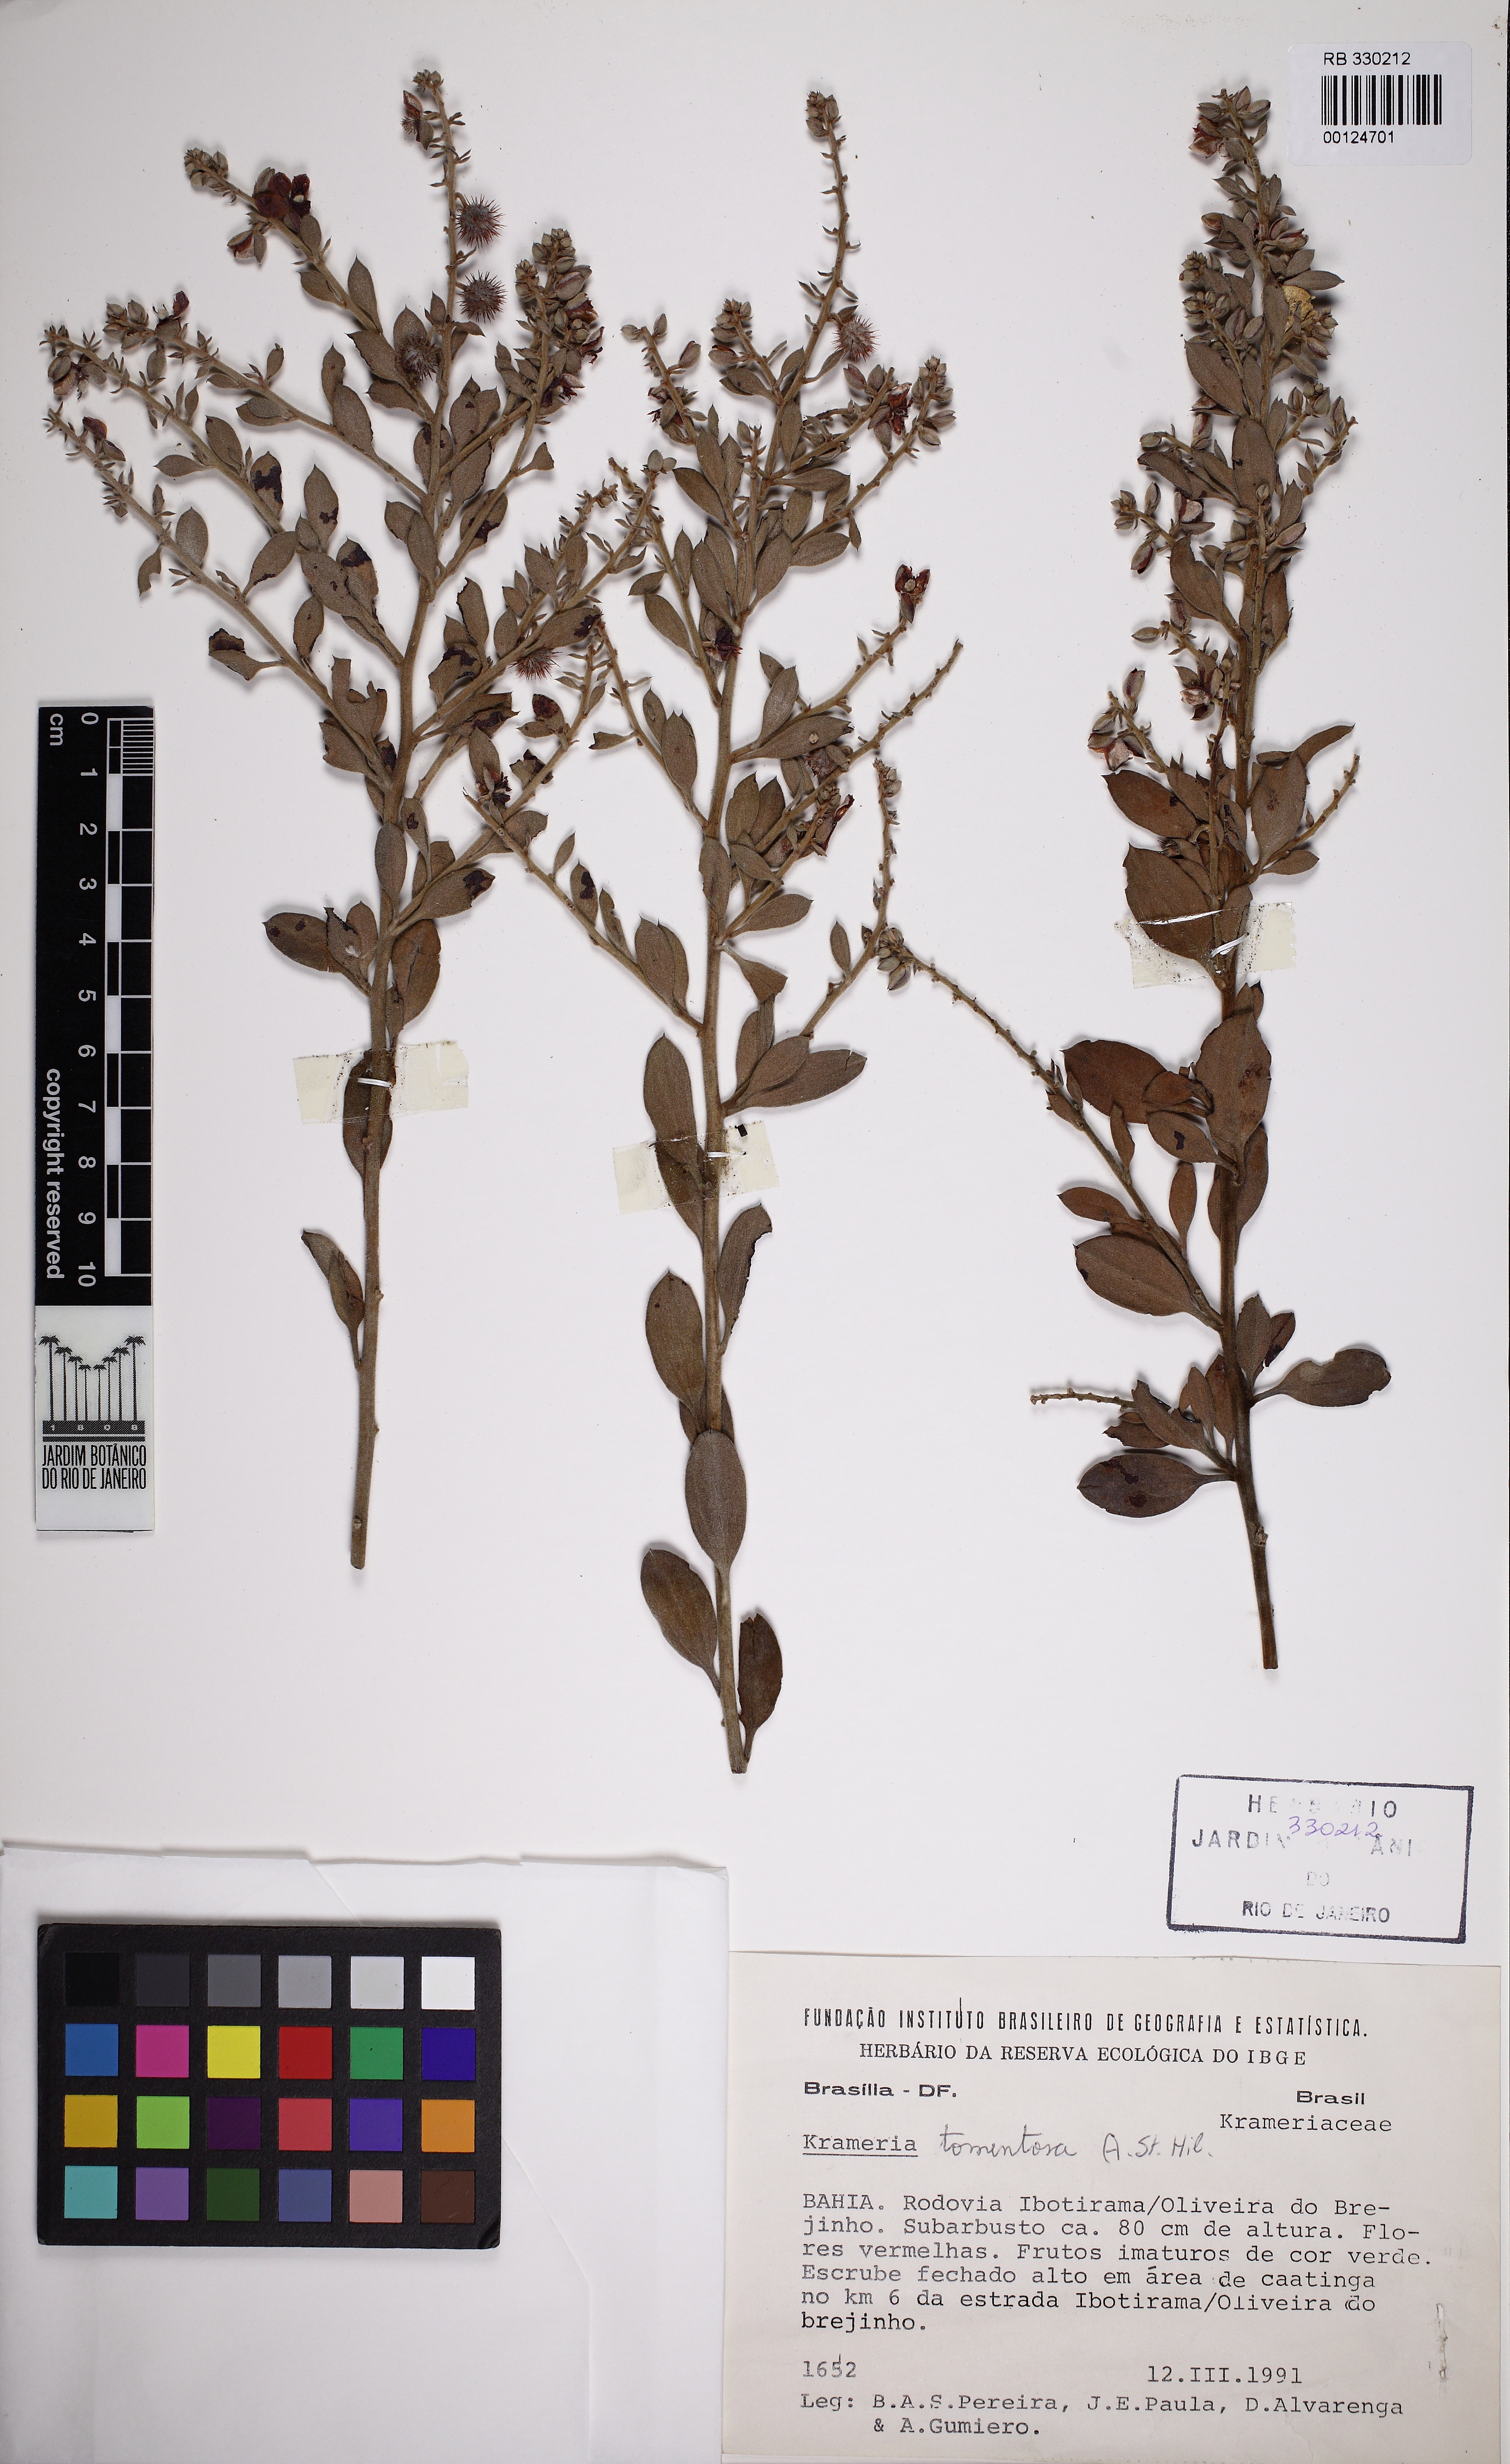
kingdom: Plantae
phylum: Tracheophyta
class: Magnoliopsida
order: Zygophyllales
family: Krameriaceae
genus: Krameria
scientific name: Krameria tomentosa
